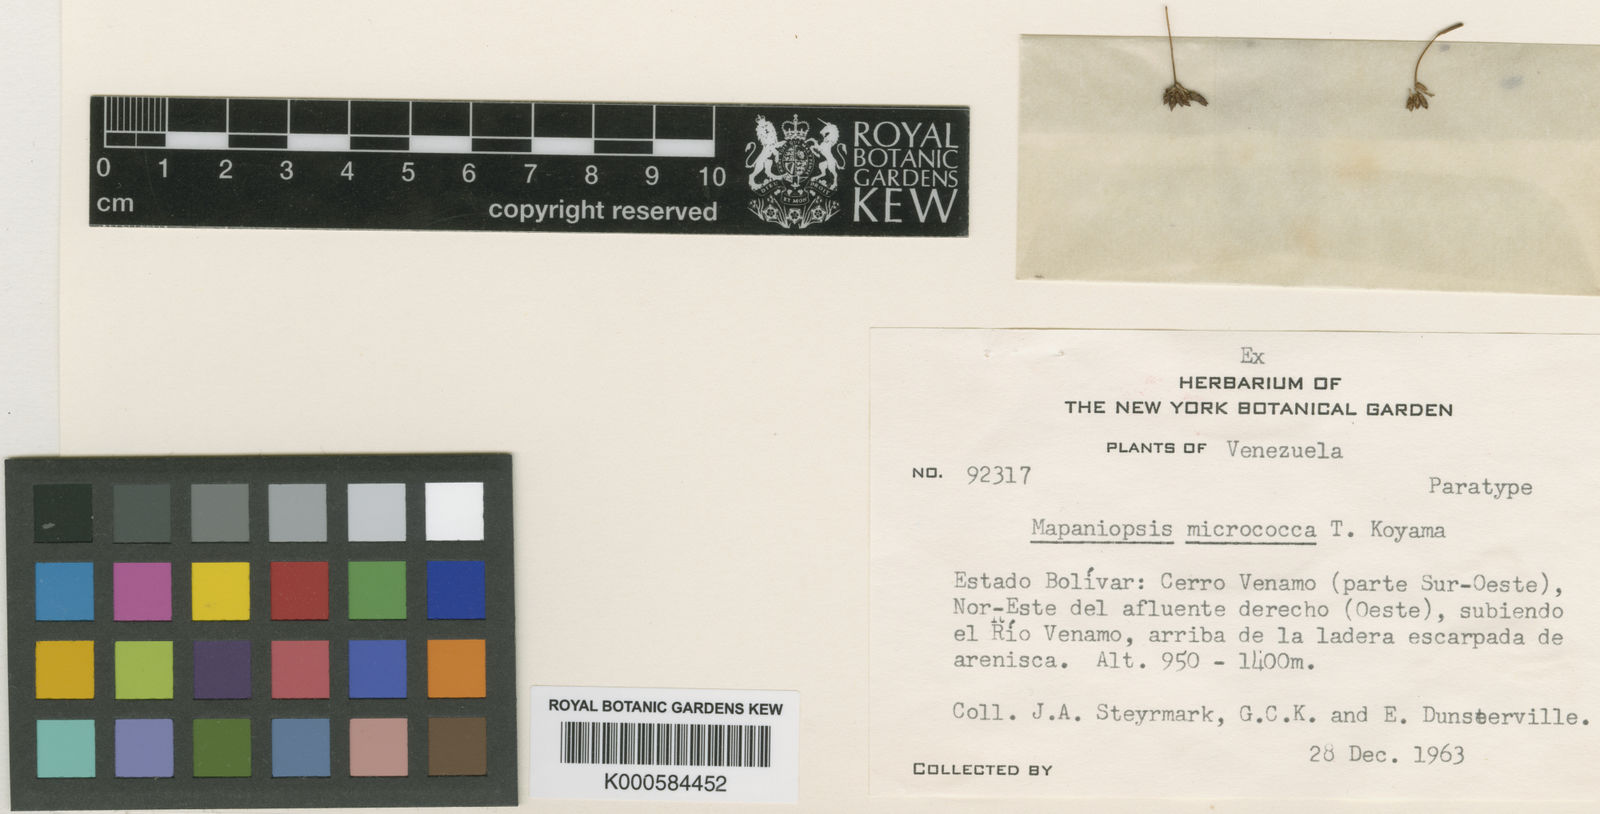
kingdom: Plantae
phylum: Tracheophyta
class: Liliopsida
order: Poales
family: Cyperaceae
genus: Mapania
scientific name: Mapania micrococca
